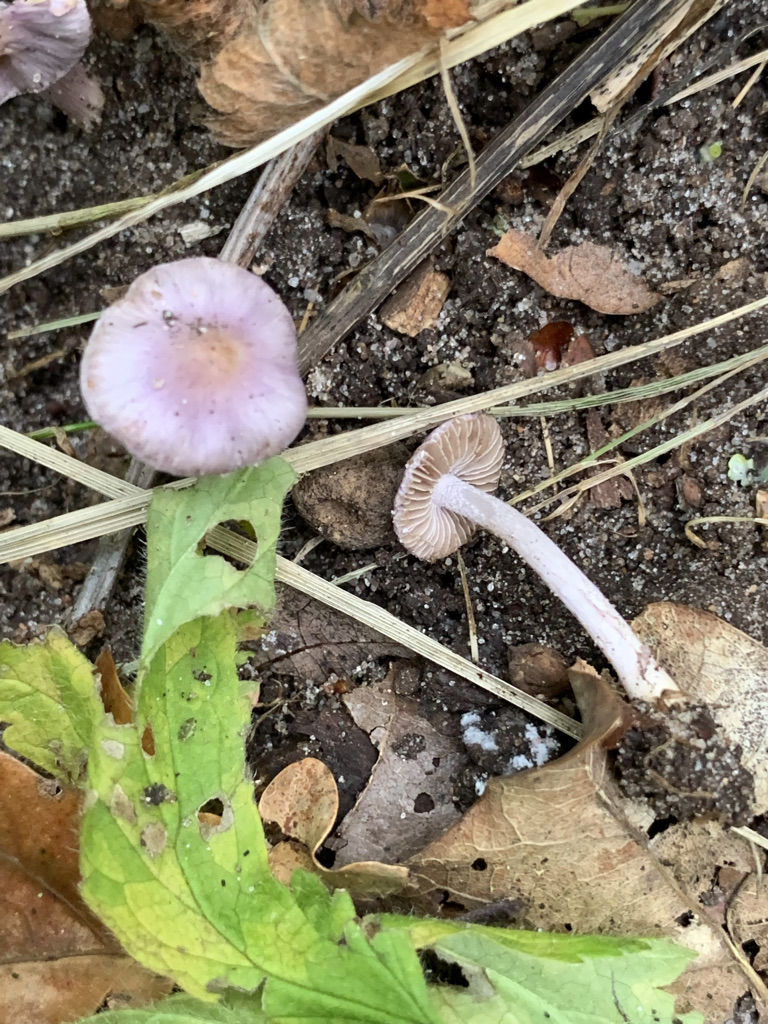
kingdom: Fungi
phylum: Basidiomycota
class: Agaricomycetes
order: Agaricales
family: Inocybaceae
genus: Inocybe
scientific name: Inocybe geophylla
